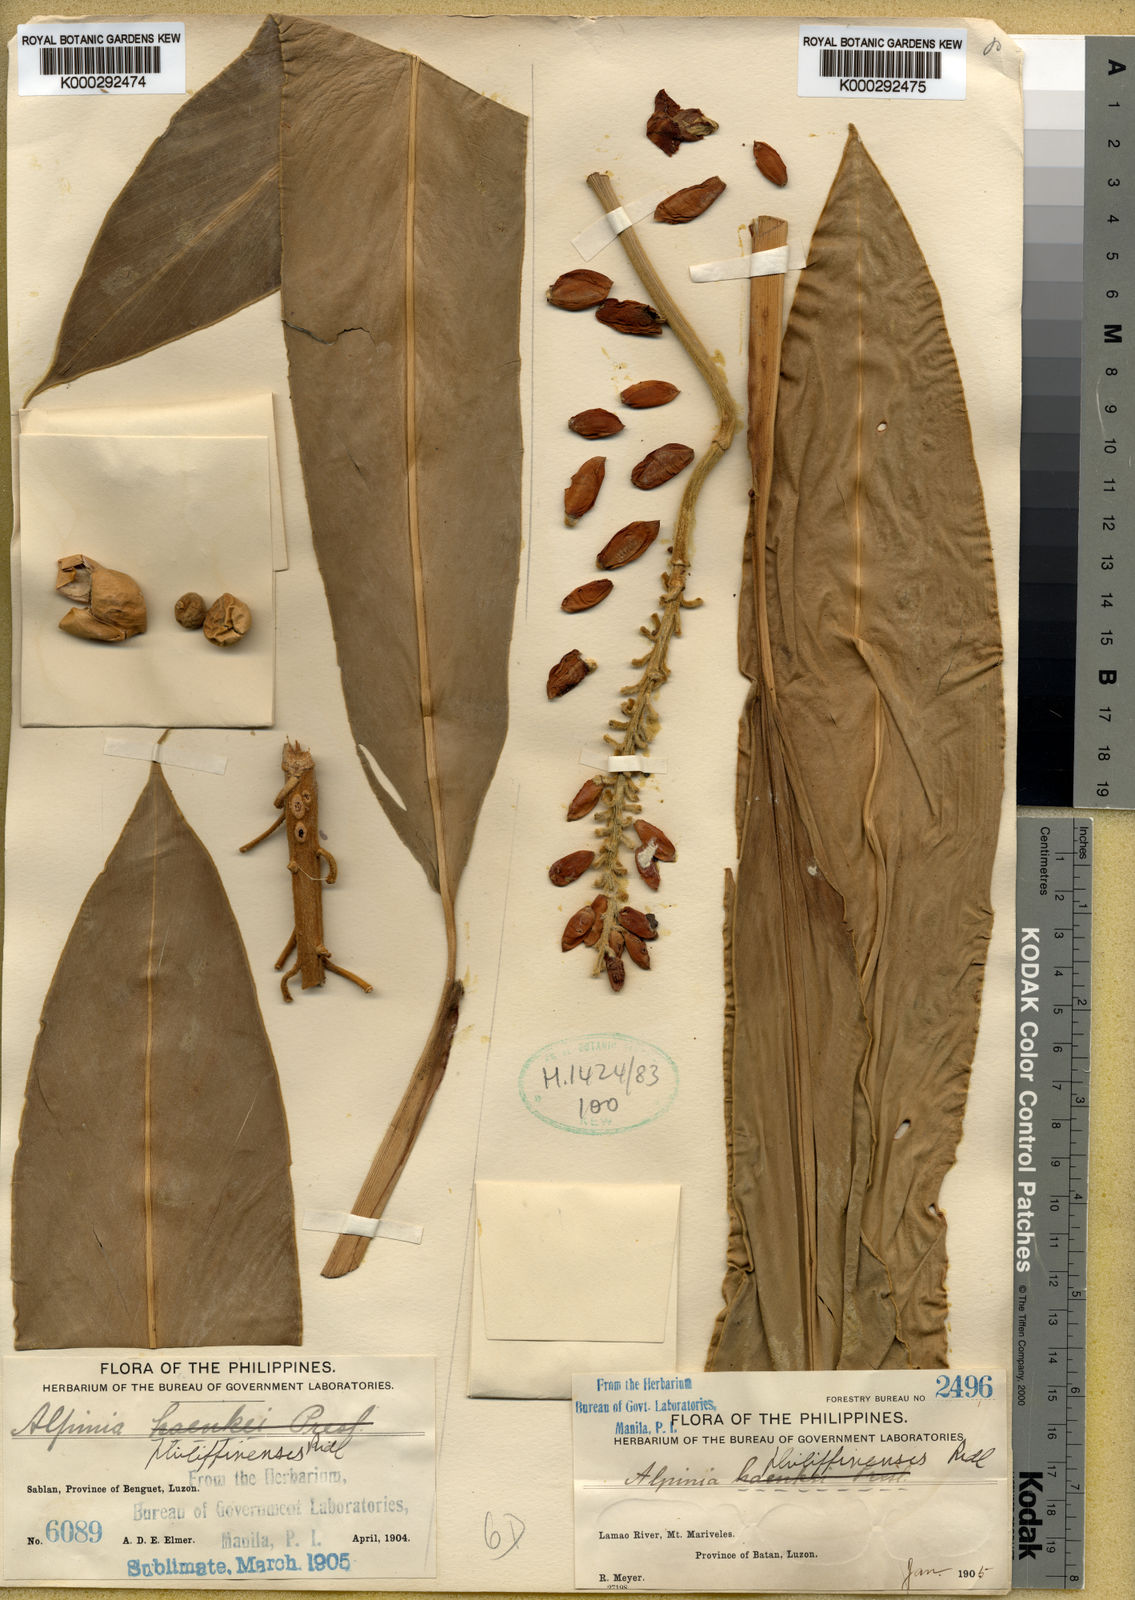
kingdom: Plantae
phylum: Tracheophyta
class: Liliopsida
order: Zingiberales
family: Zingiberaceae
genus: Alpinia
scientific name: Alpinia haenkei
